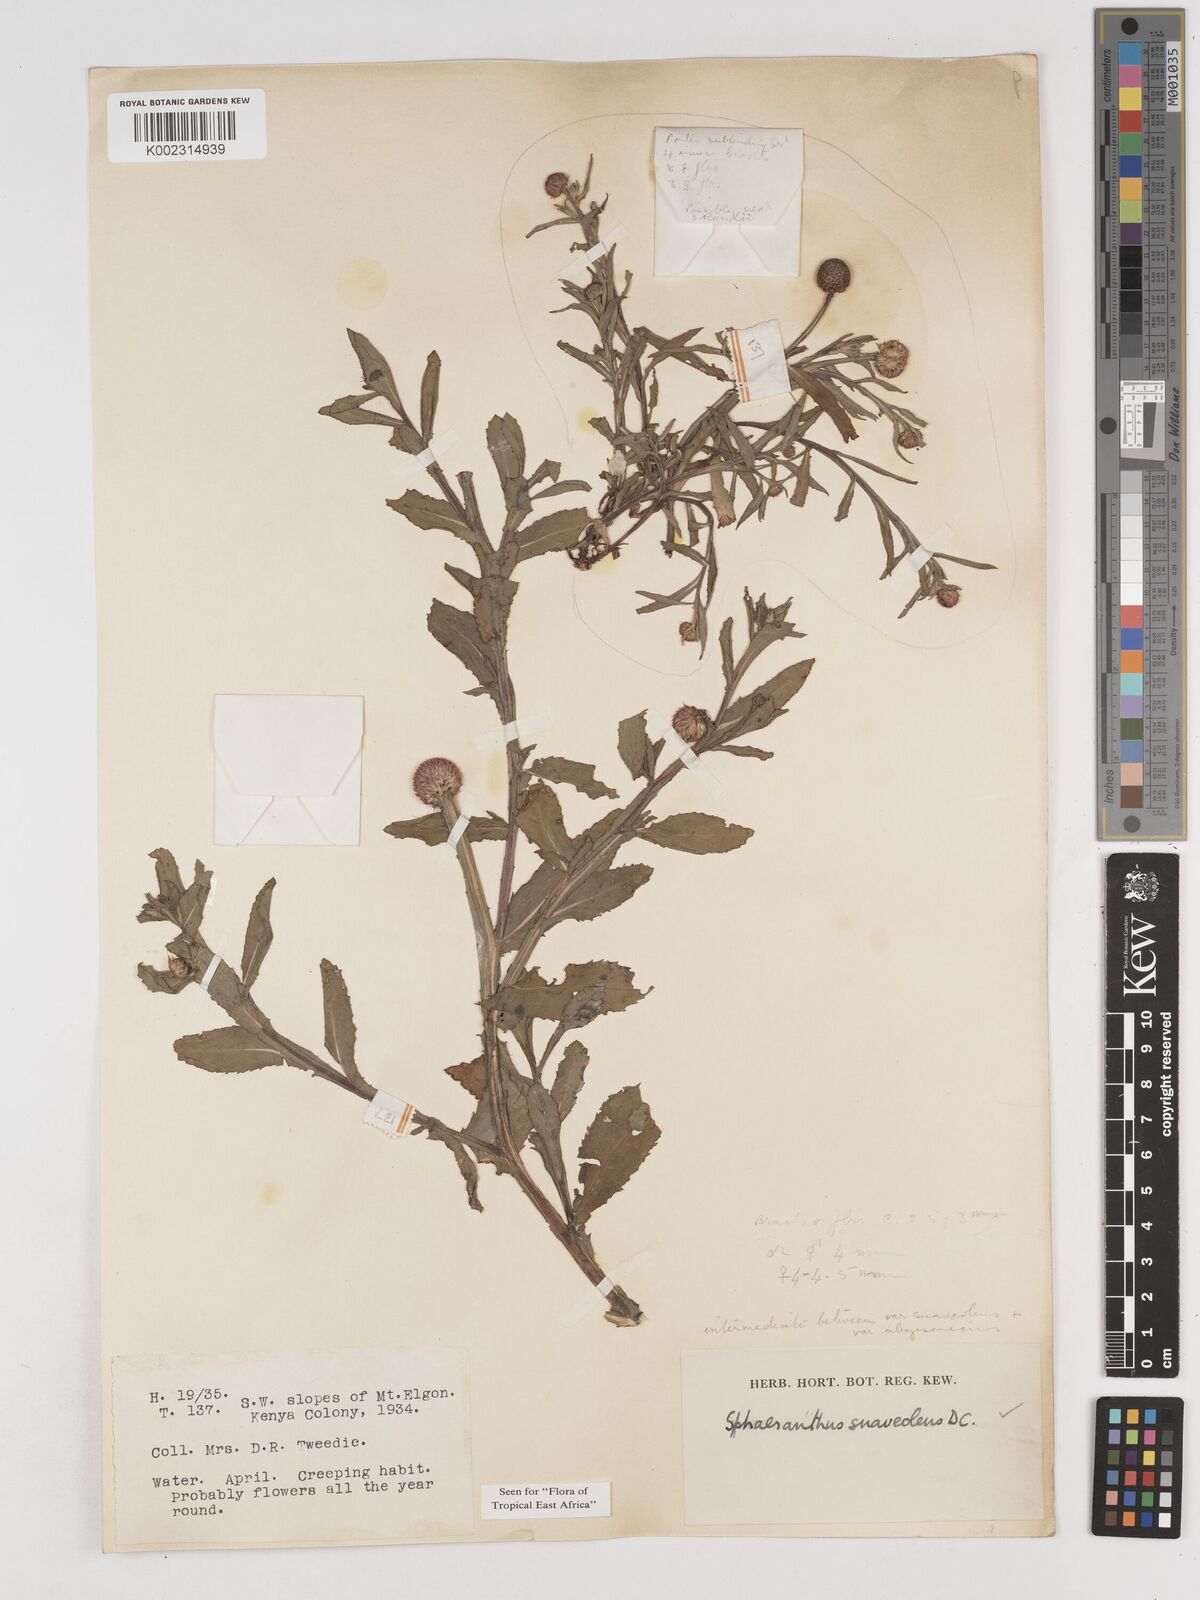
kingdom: Plantae
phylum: Tracheophyta
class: Magnoliopsida
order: Asterales
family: Asteraceae
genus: Sphaeranthus
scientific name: Sphaeranthus suaveolens
